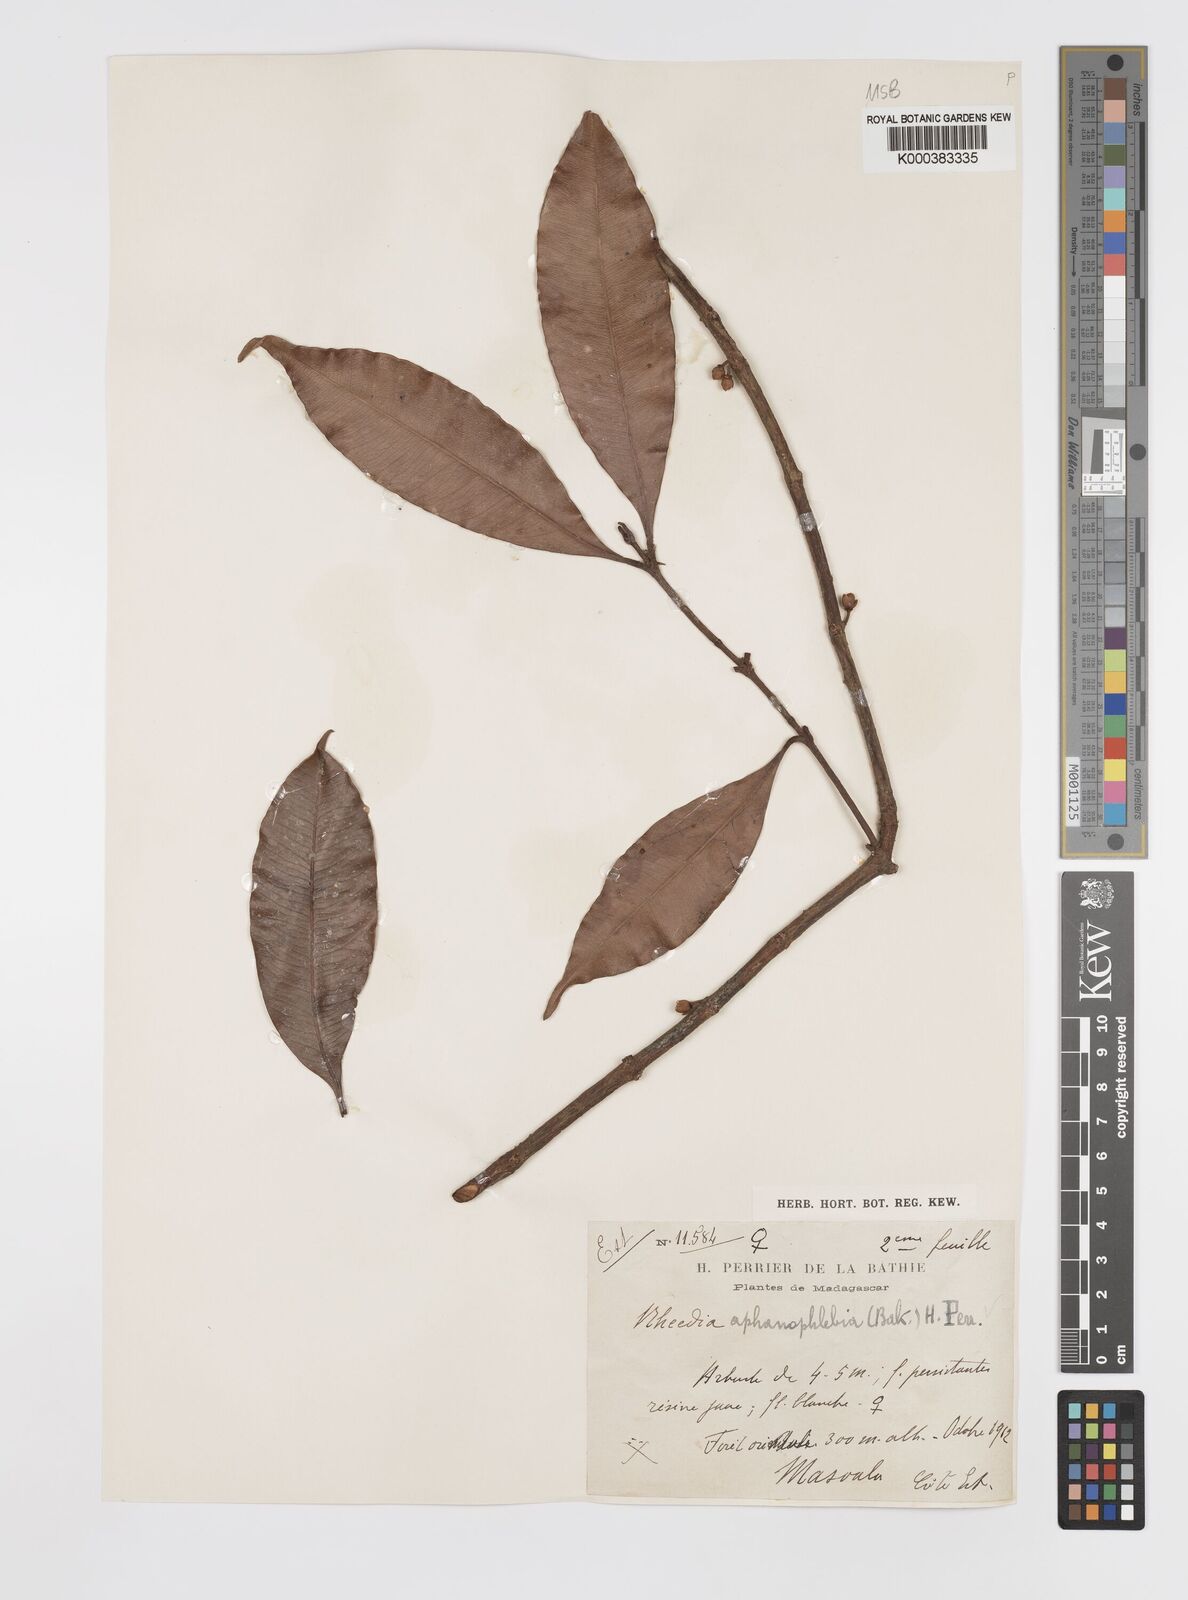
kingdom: Plantae
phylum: Tracheophyta
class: Magnoliopsida
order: Malpighiales
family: Clusiaceae
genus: Garcinia
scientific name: Garcinia
